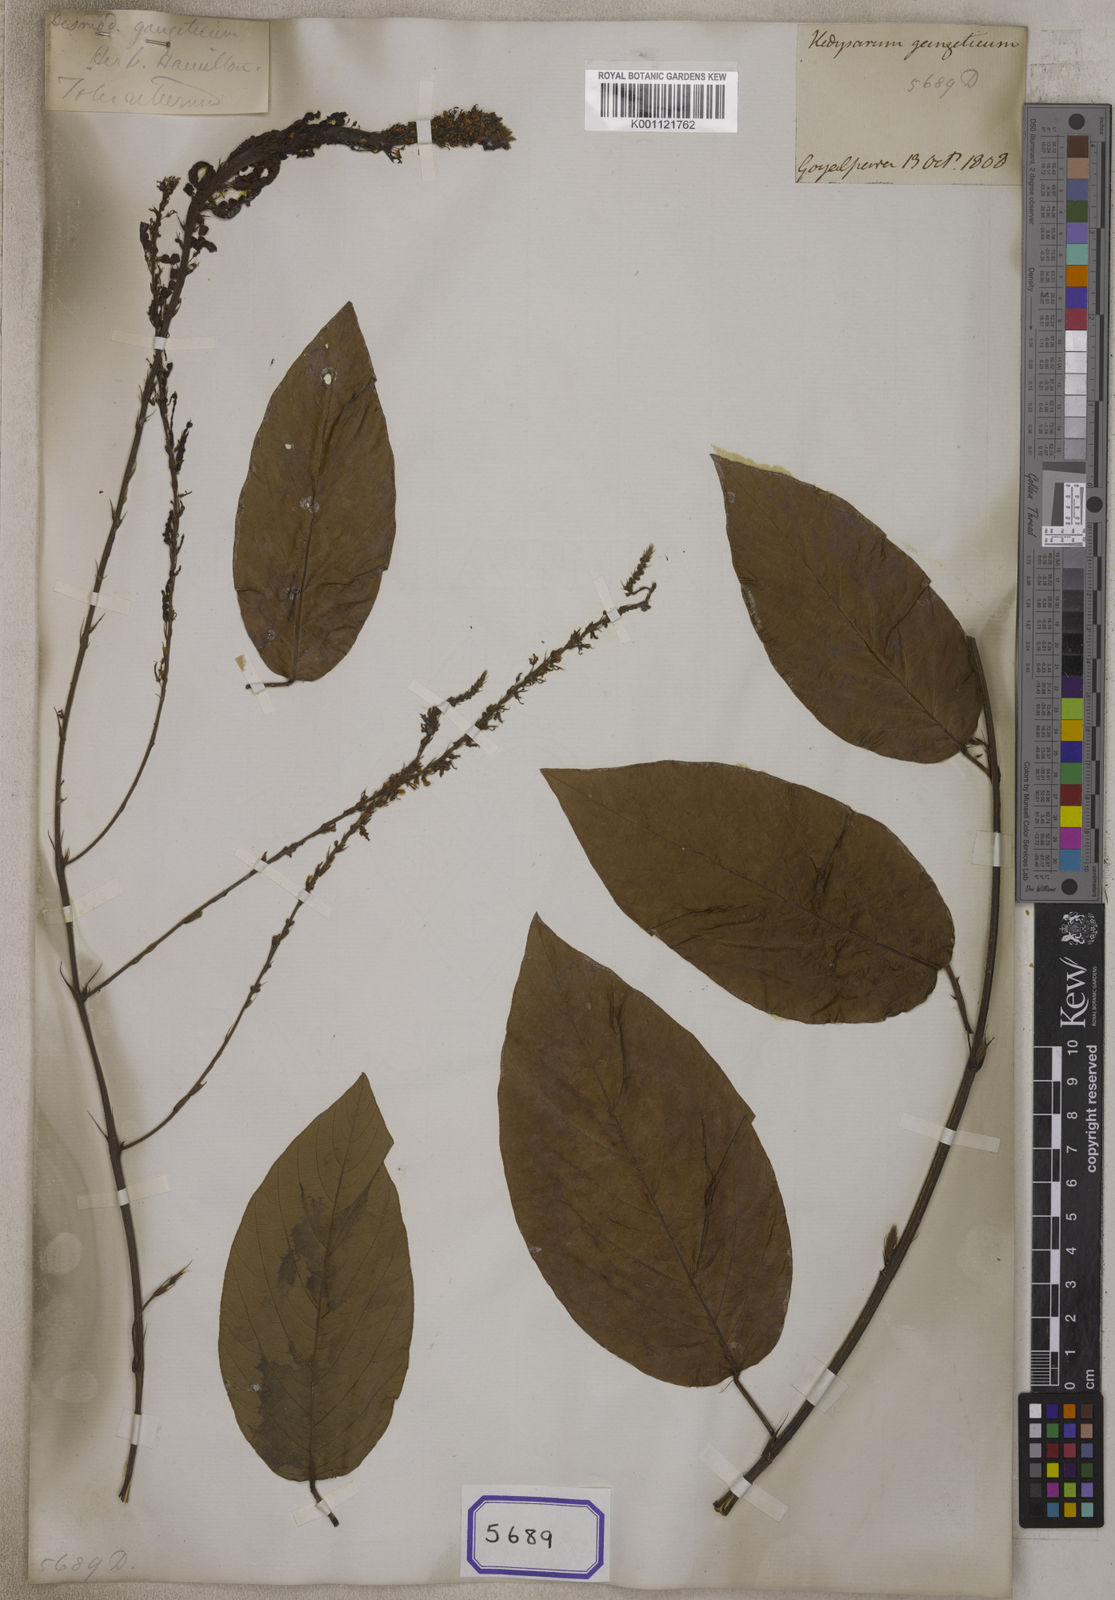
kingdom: Plantae
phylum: Tracheophyta
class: Magnoliopsida
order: Fabales
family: Fabaceae
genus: Pleurolobus
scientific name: Pleurolobus gangeticus
